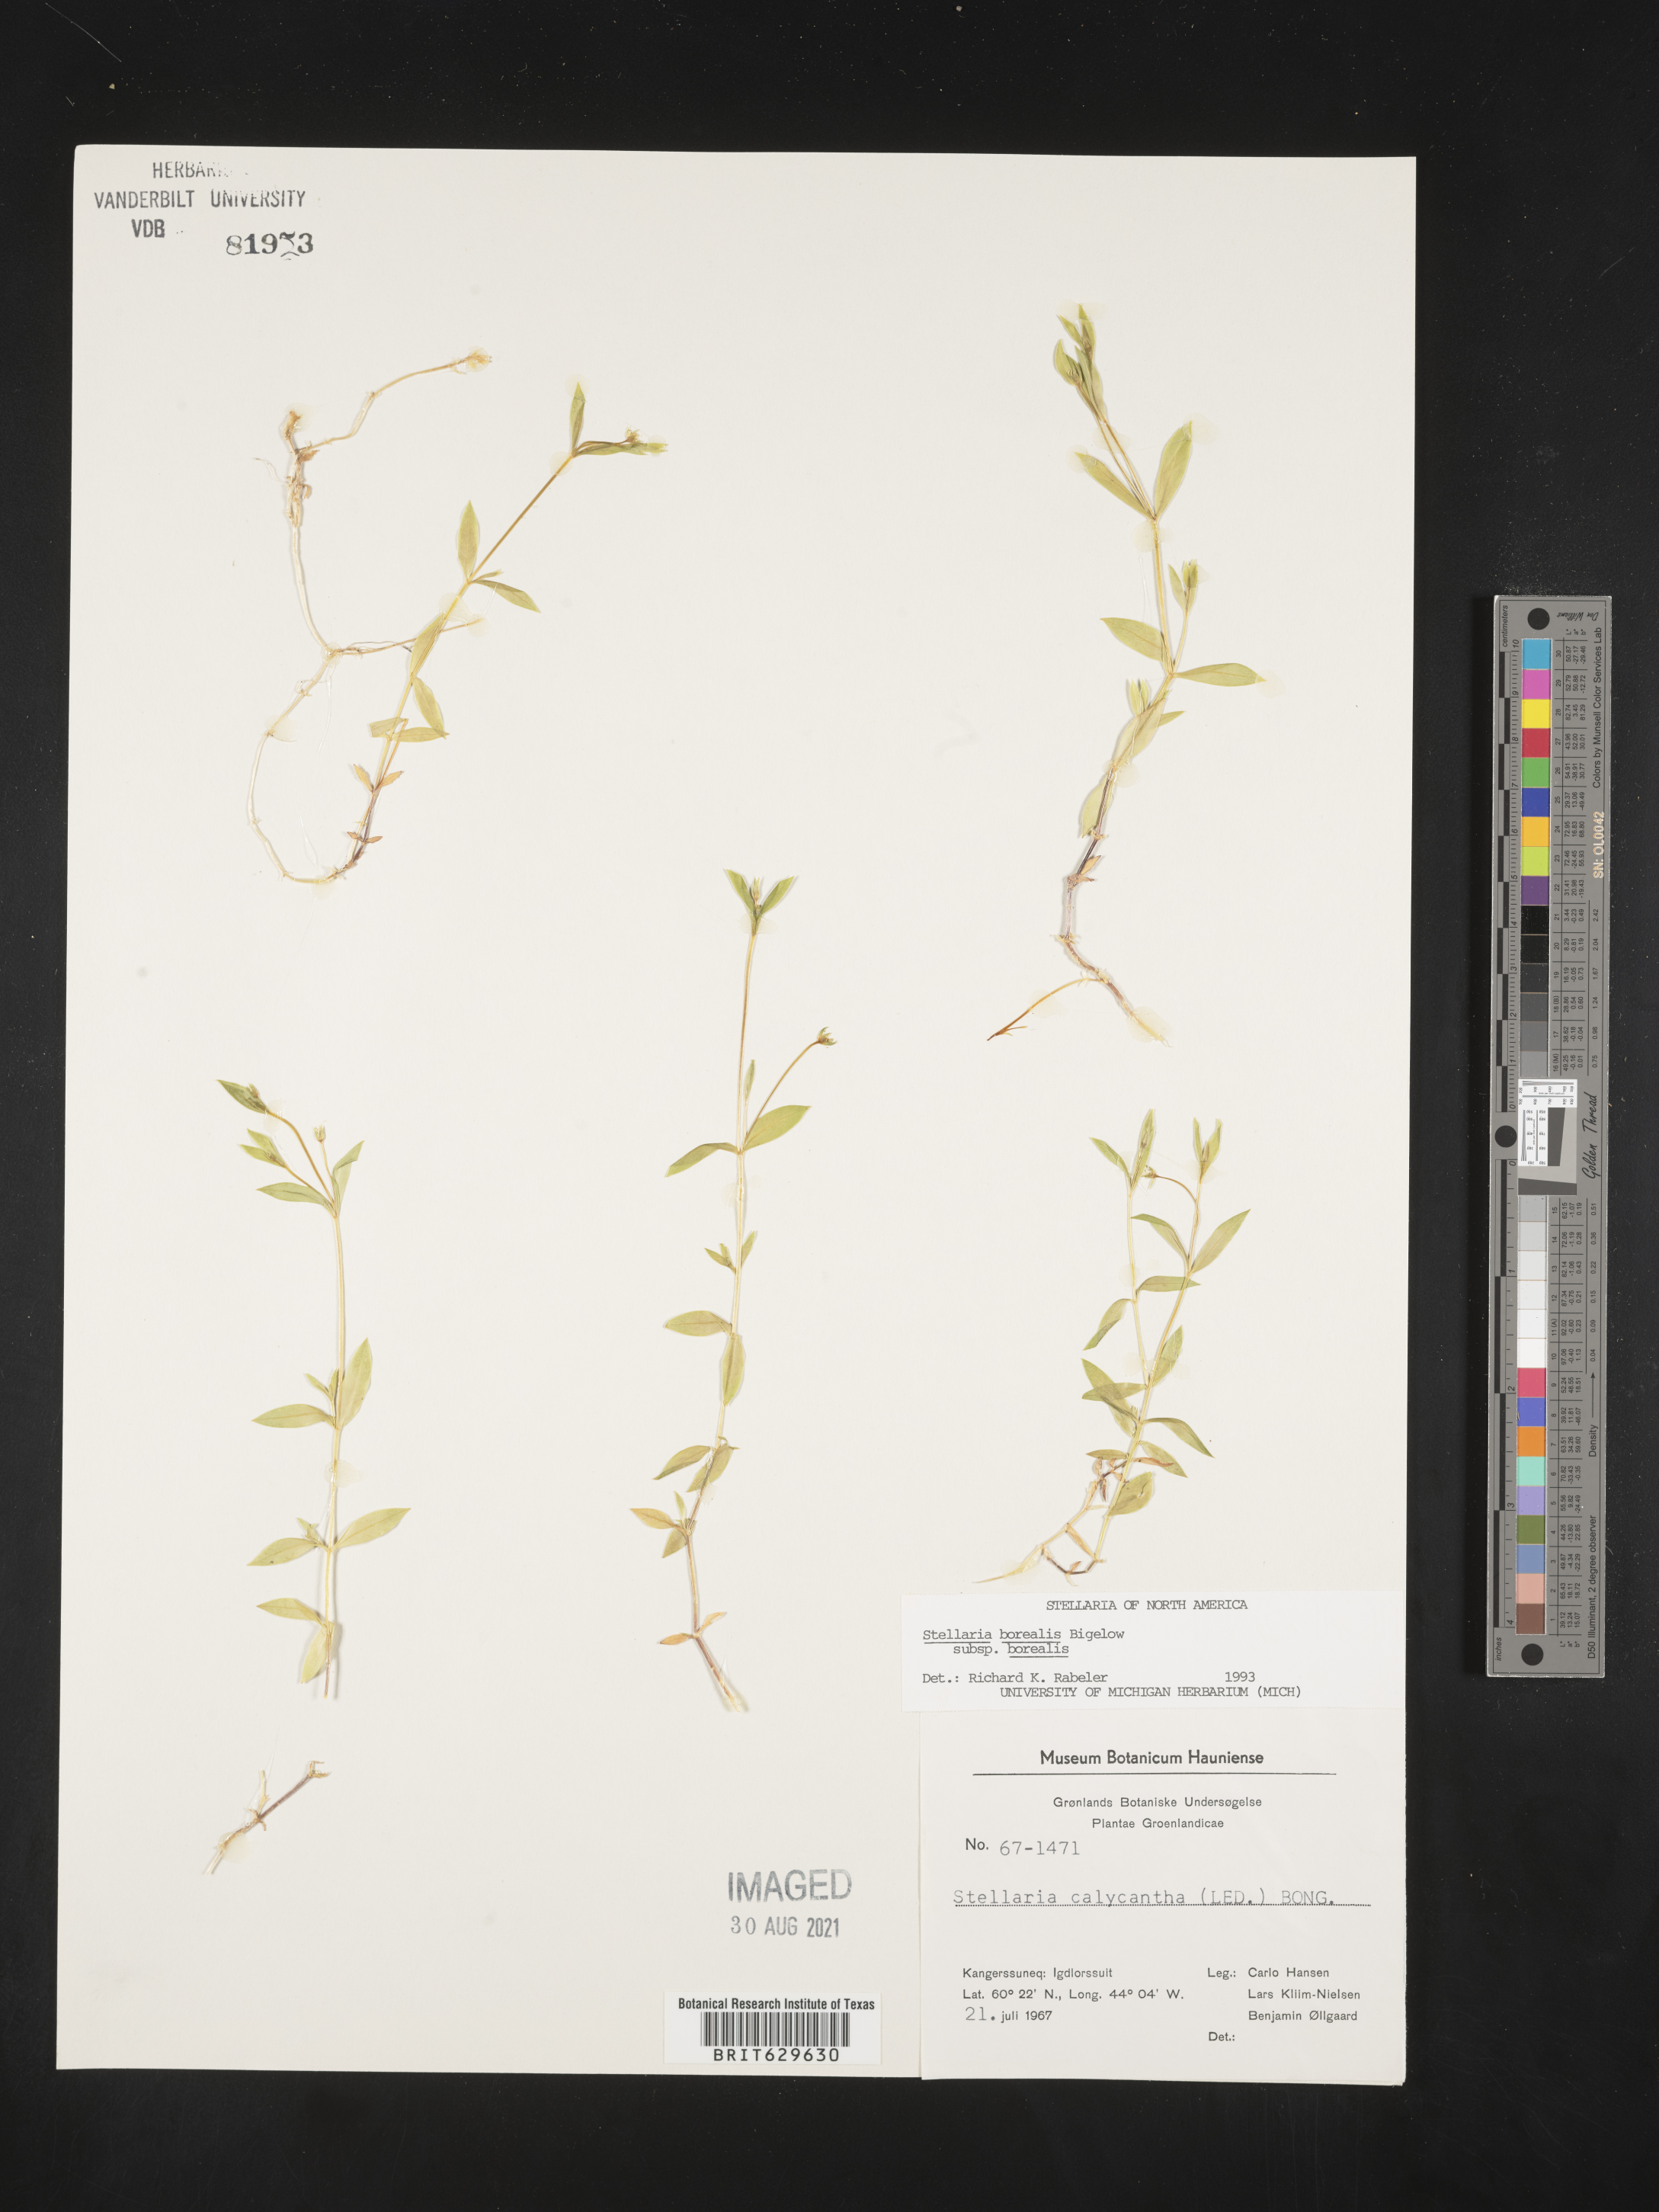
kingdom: Plantae
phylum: Tracheophyta
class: Magnoliopsida
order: Caryophyllales
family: Caryophyllaceae
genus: Stellaria
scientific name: Stellaria borealis
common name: Boreal starwort
